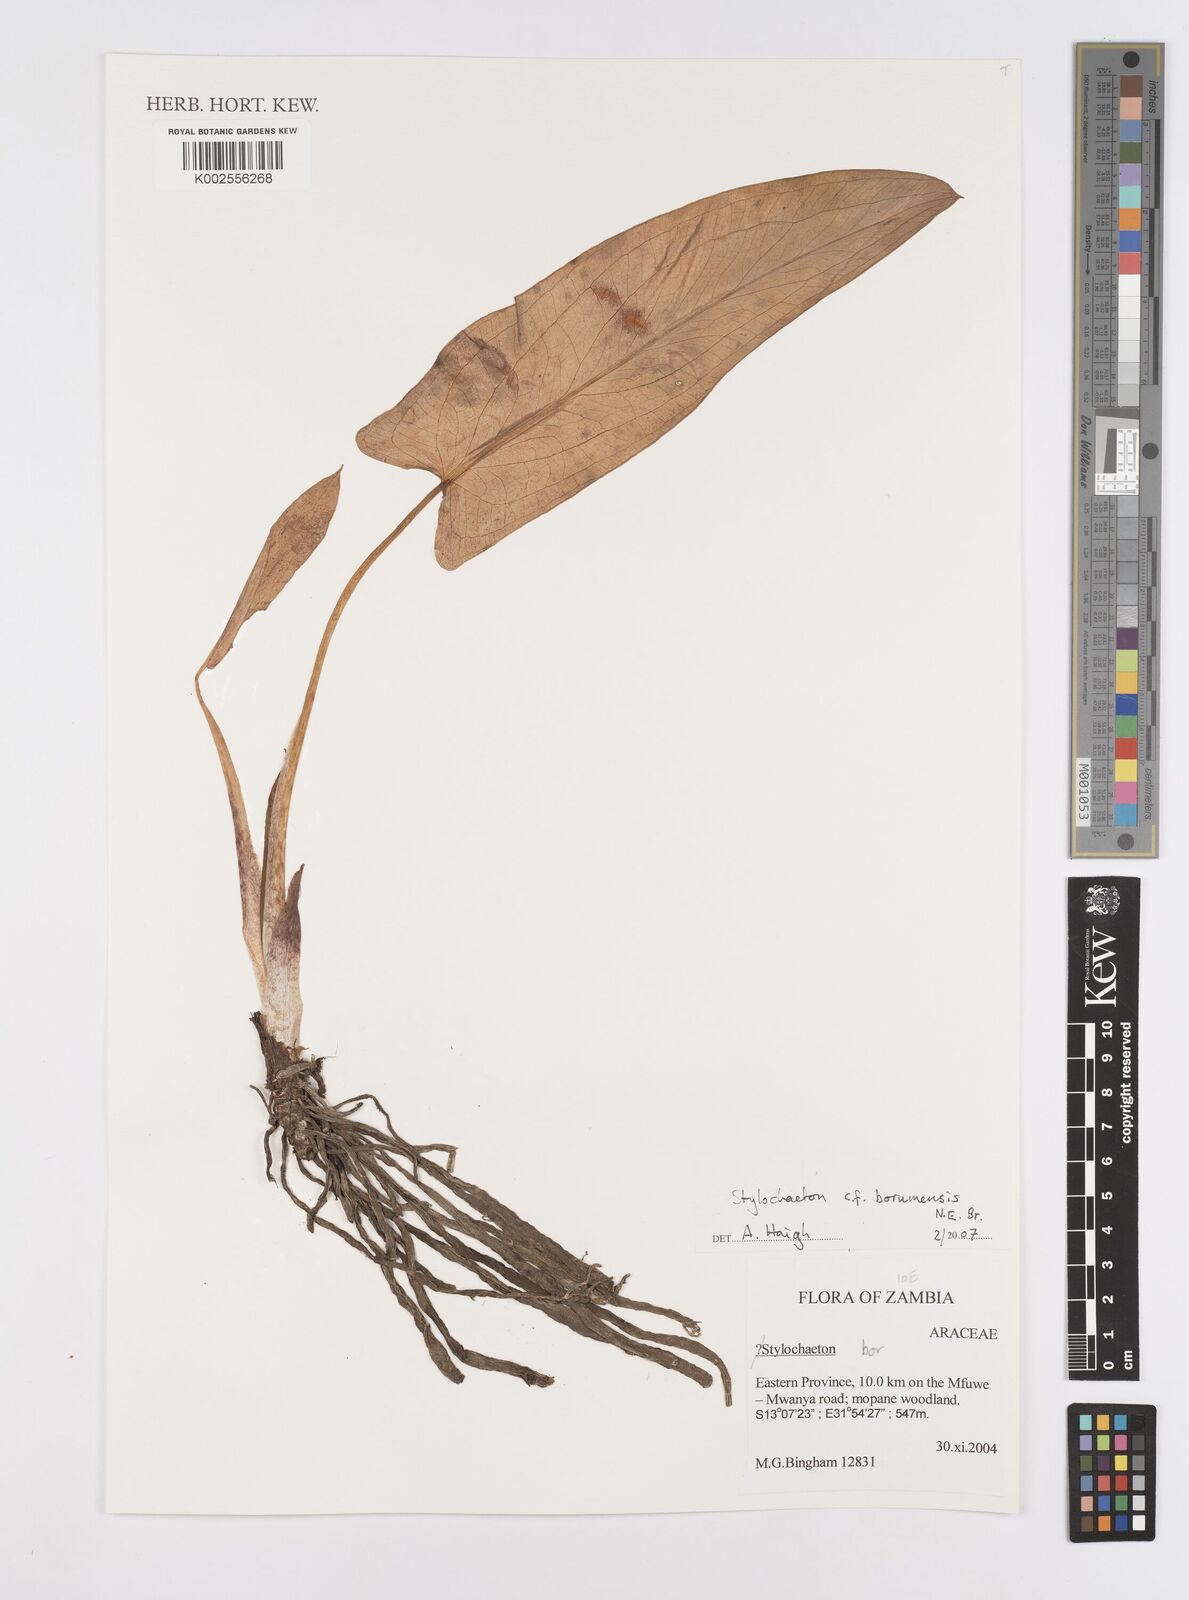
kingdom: Plantae
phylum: Tracheophyta
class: Liliopsida
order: Alismatales
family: Araceae
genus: Stylochaeton
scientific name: Stylochaeton borumense
